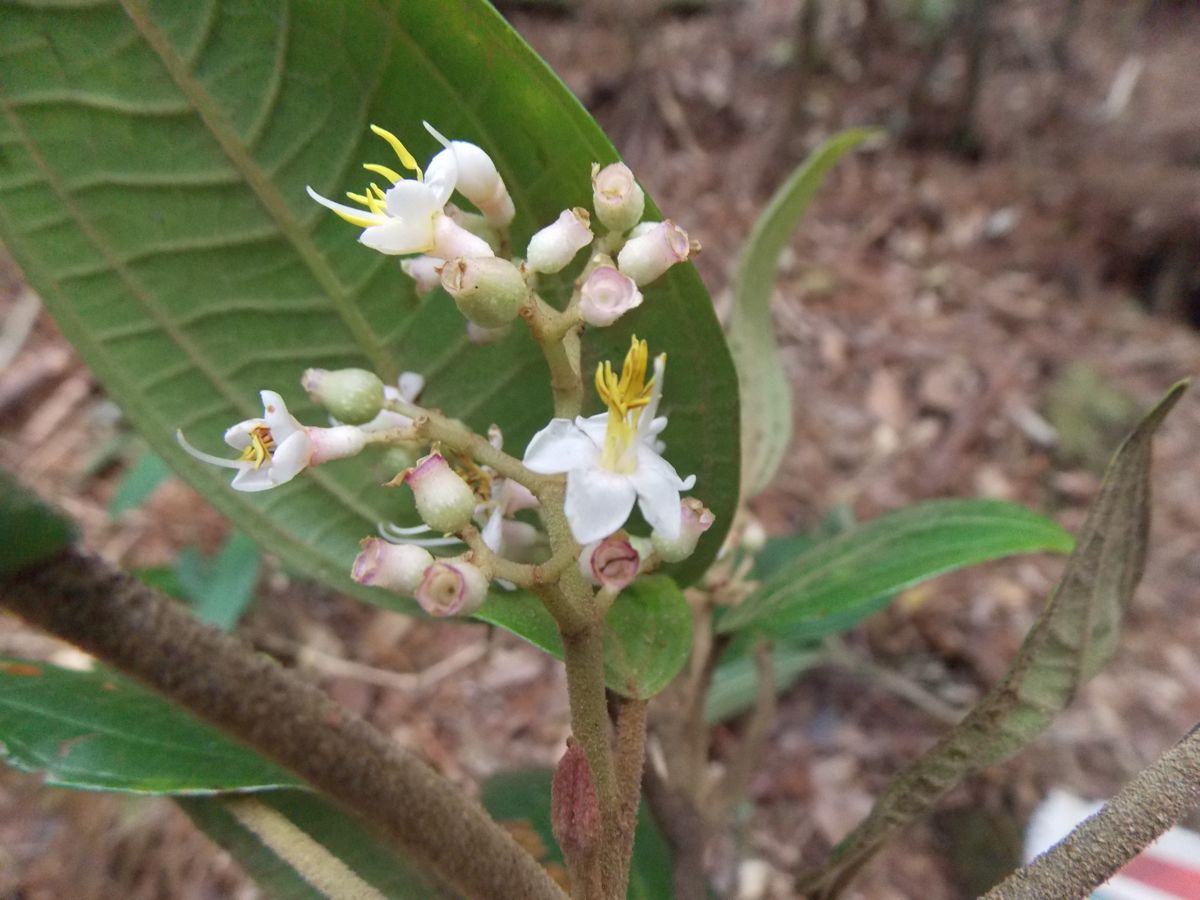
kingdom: Plantae
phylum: Tracheophyta
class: Magnoliopsida
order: Myrtales
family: Melastomataceae
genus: Miconia
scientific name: Miconia guatemalensis
